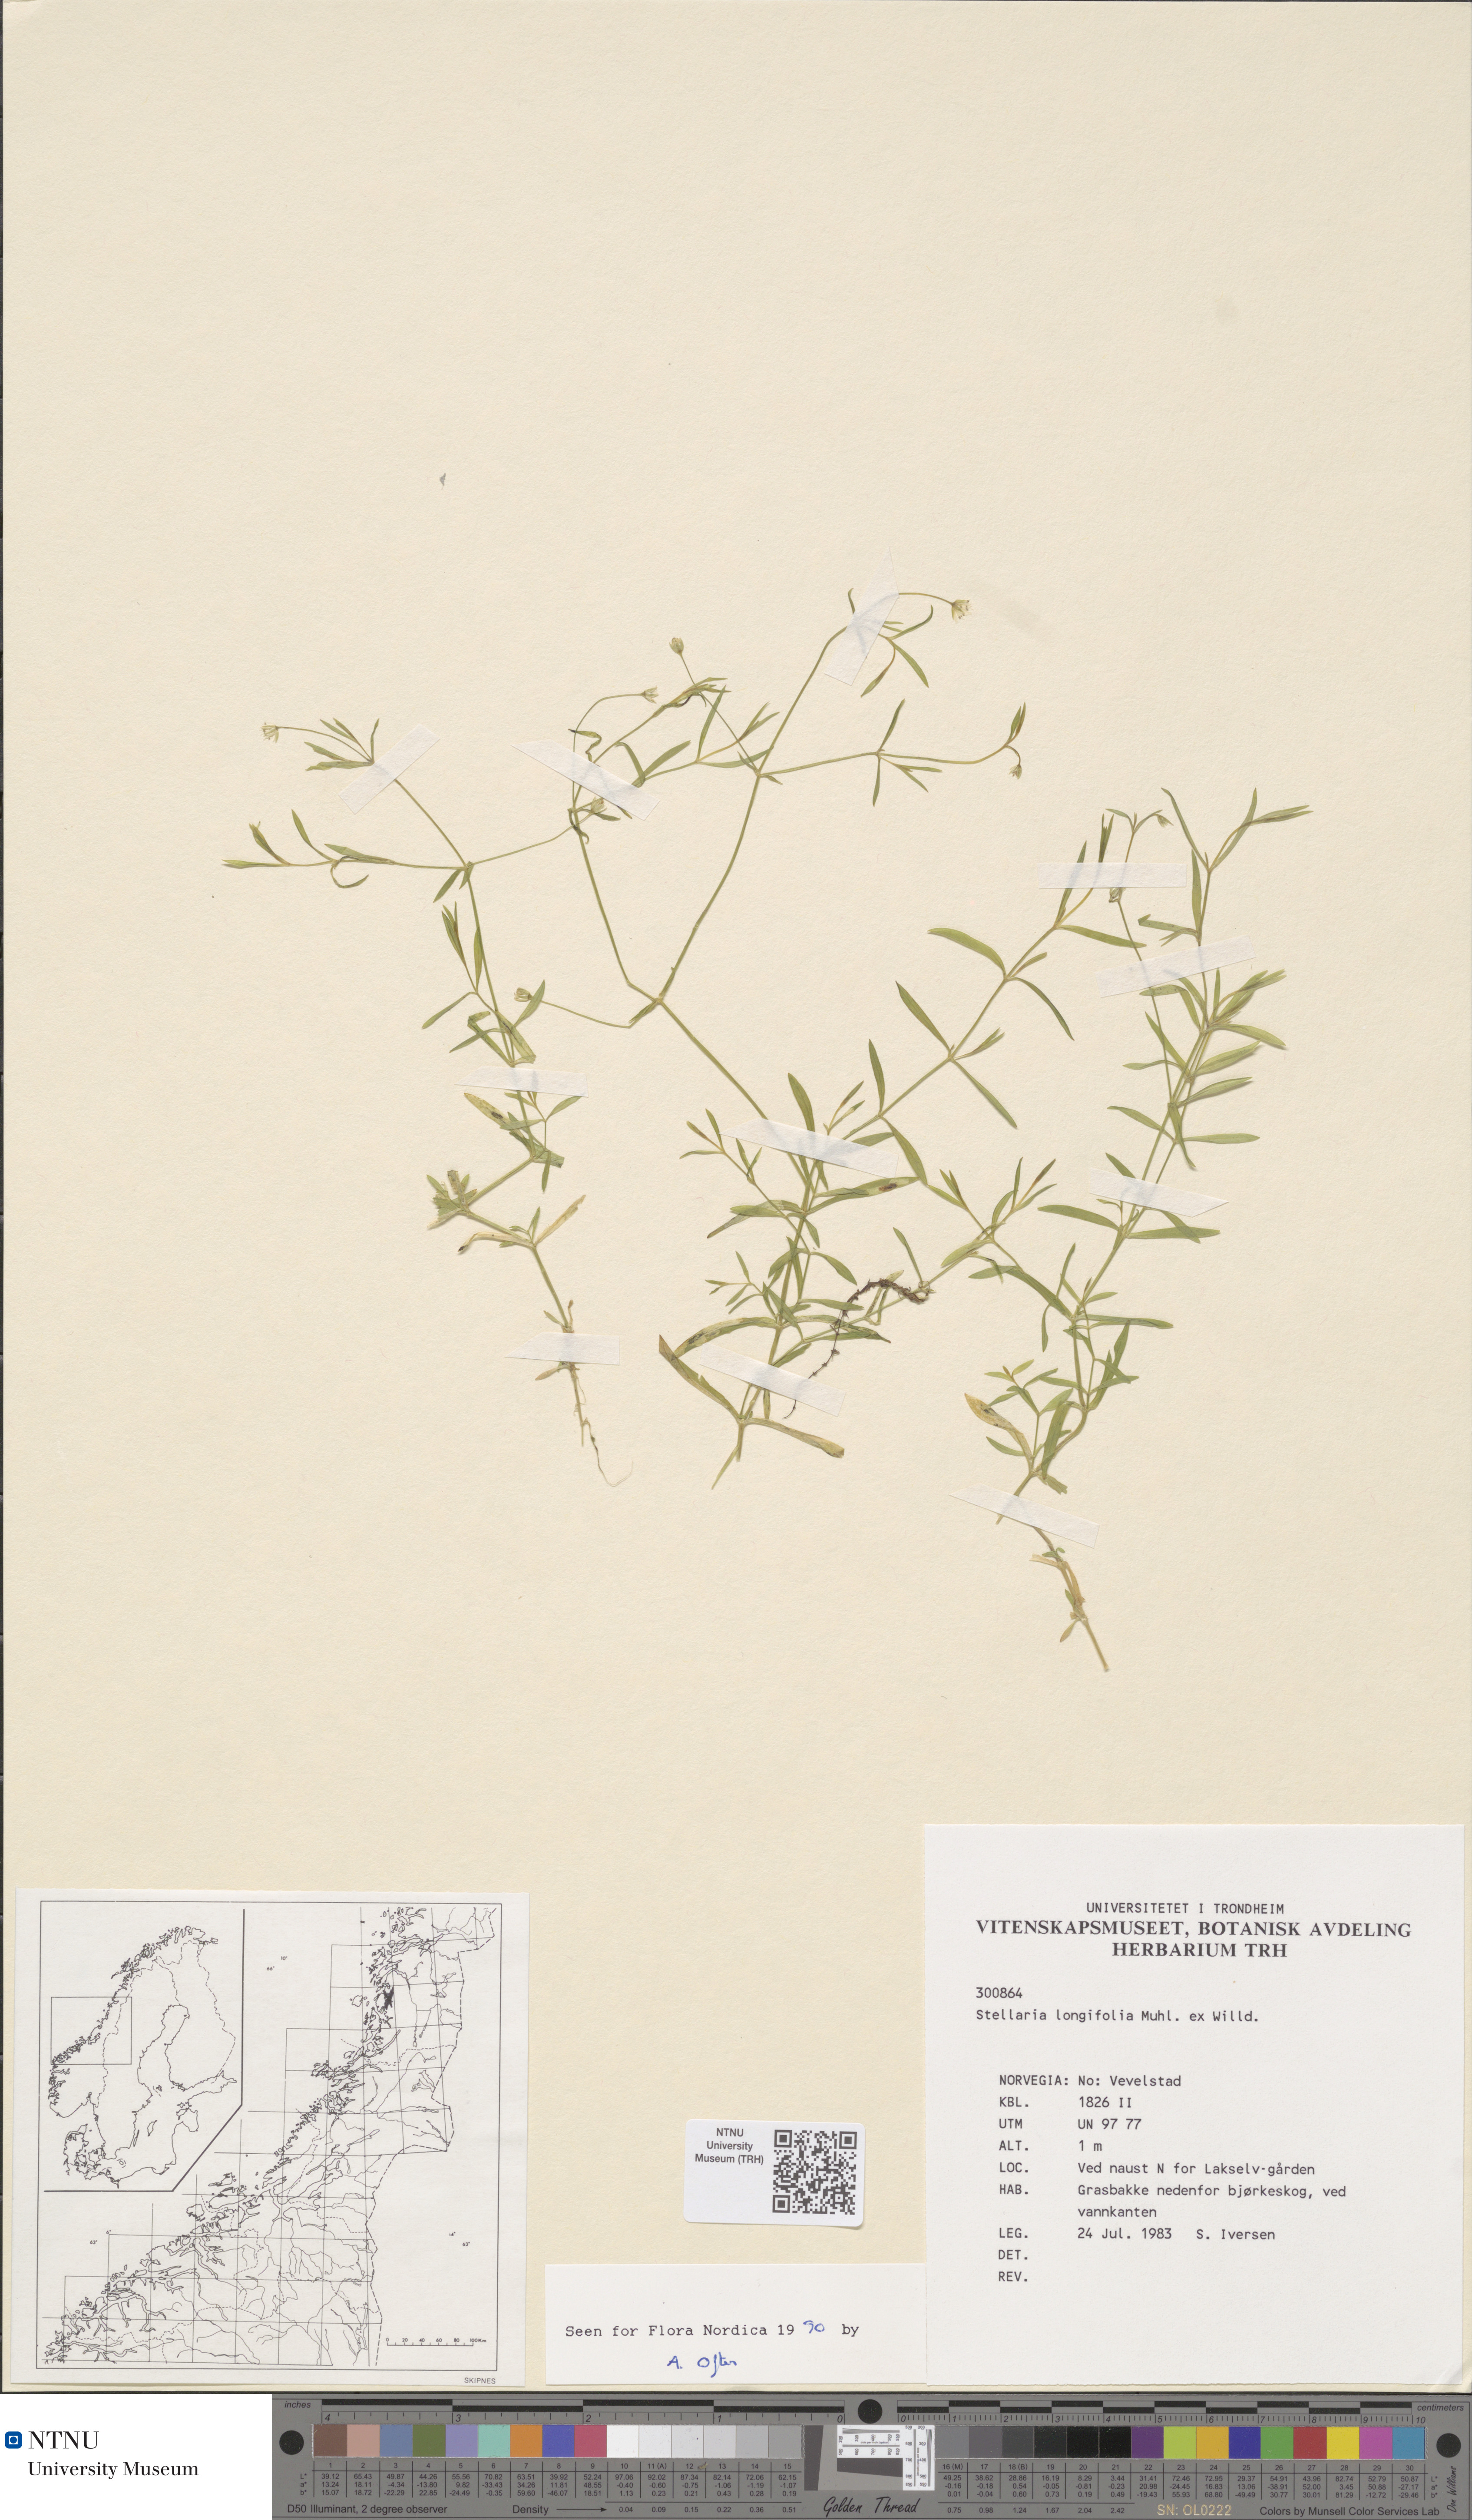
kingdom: Plantae
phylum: Tracheophyta
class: Magnoliopsida
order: Caryophyllales
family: Caryophyllaceae
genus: Stellaria
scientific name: Stellaria longifolia
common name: Long-leaved chickweed
